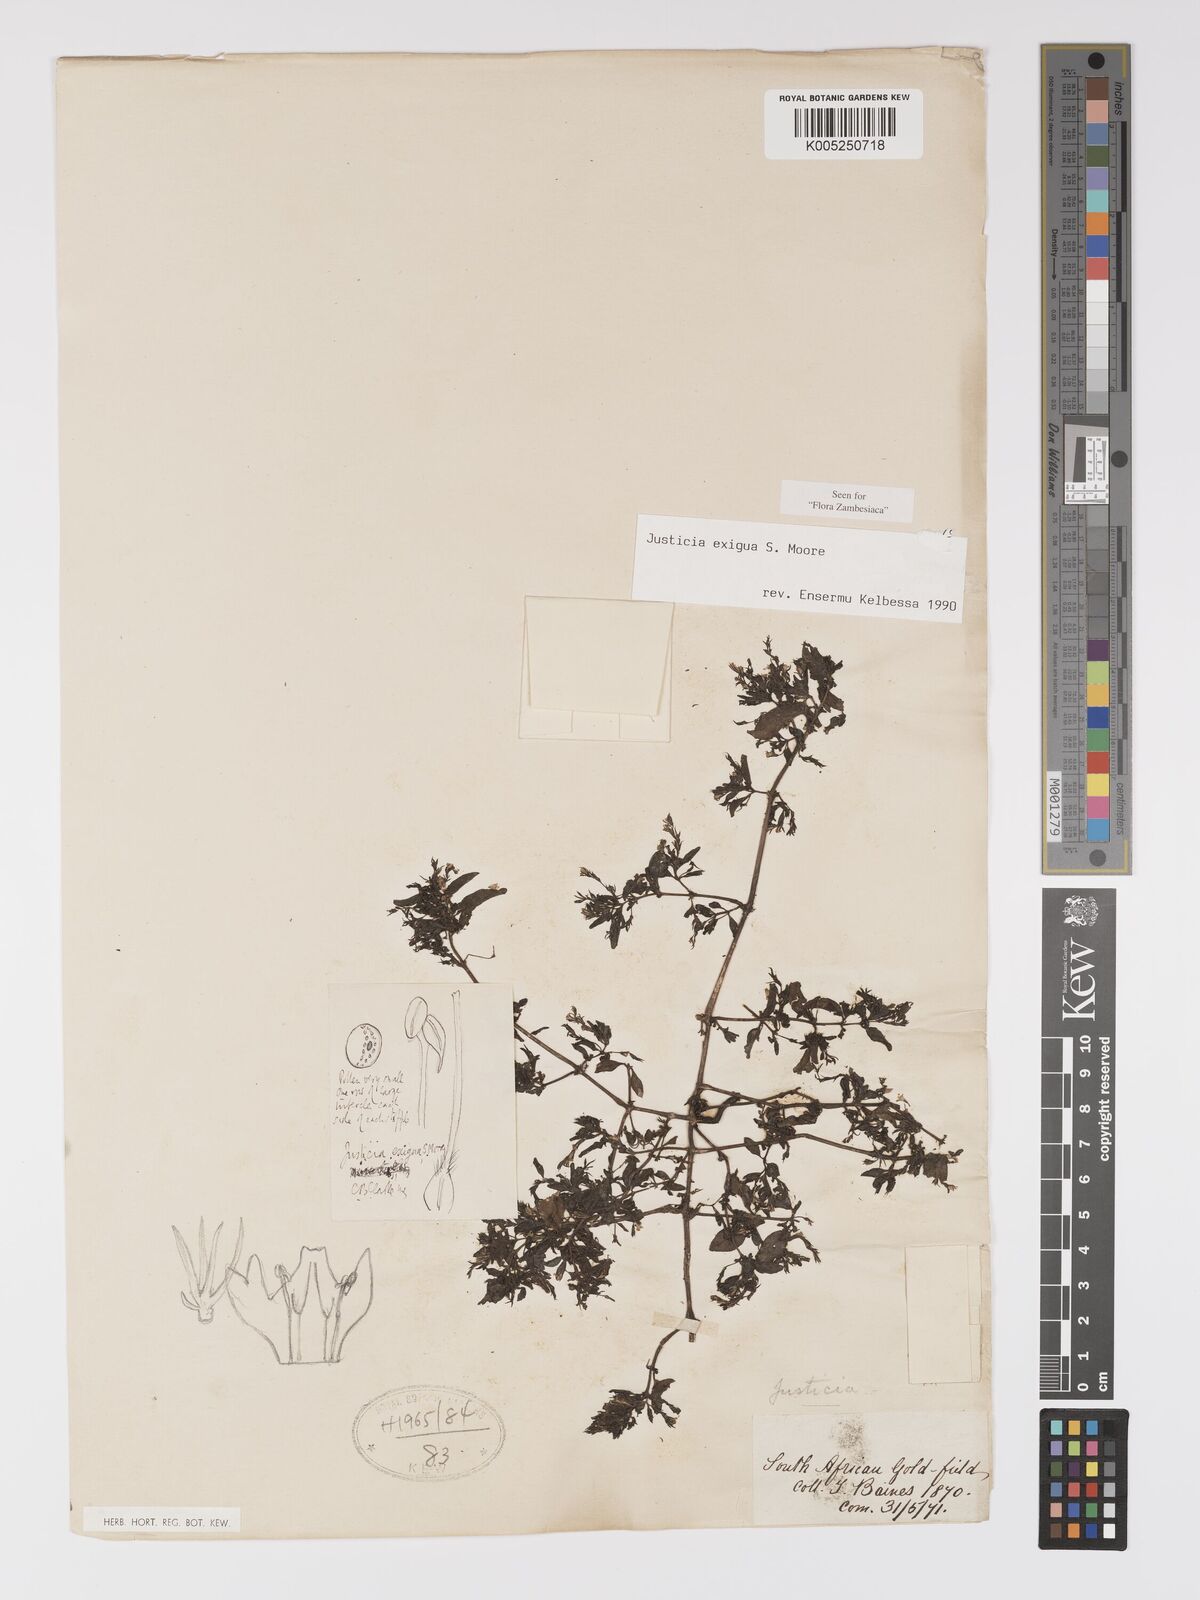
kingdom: Plantae
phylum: Tracheophyta
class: Magnoliopsida
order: Lamiales
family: Acanthaceae
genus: Justicia
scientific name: Justicia exigua
